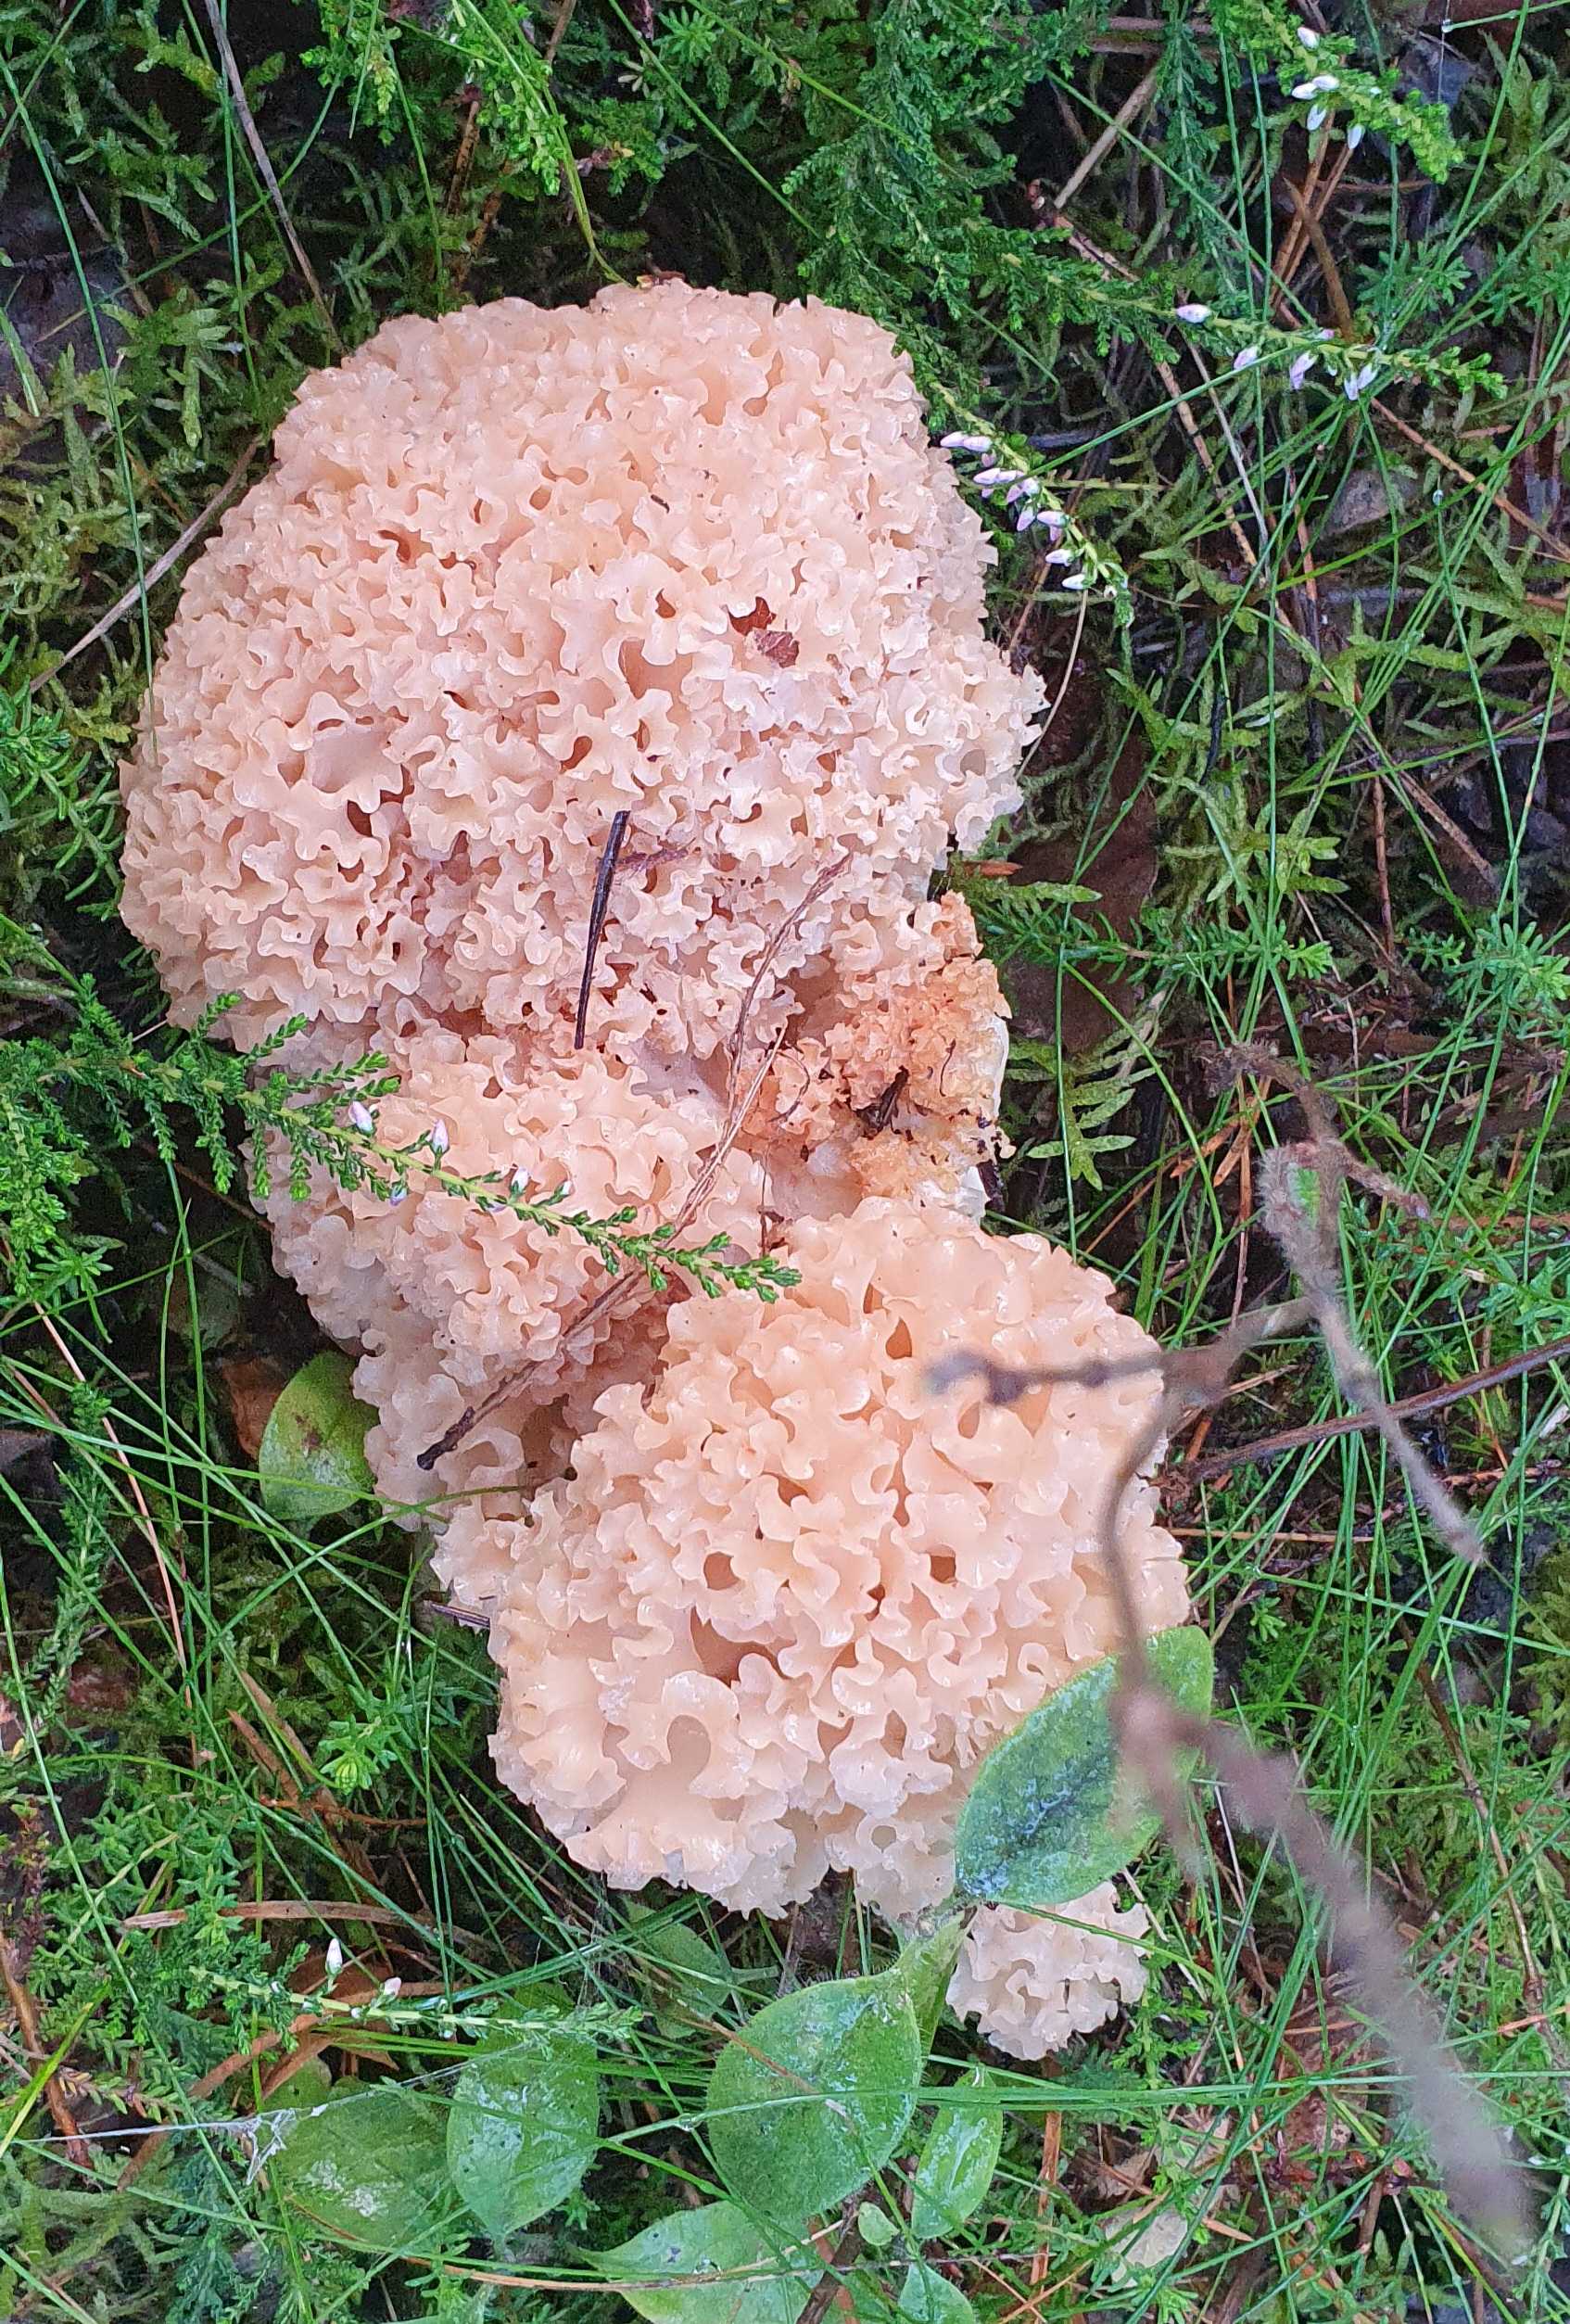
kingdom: Fungi
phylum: Basidiomycota
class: Agaricomycetes
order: Polyporales
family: Sparassidaceae
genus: Sparassis
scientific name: Sparassis crispa
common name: kruset blomkålssvamp
